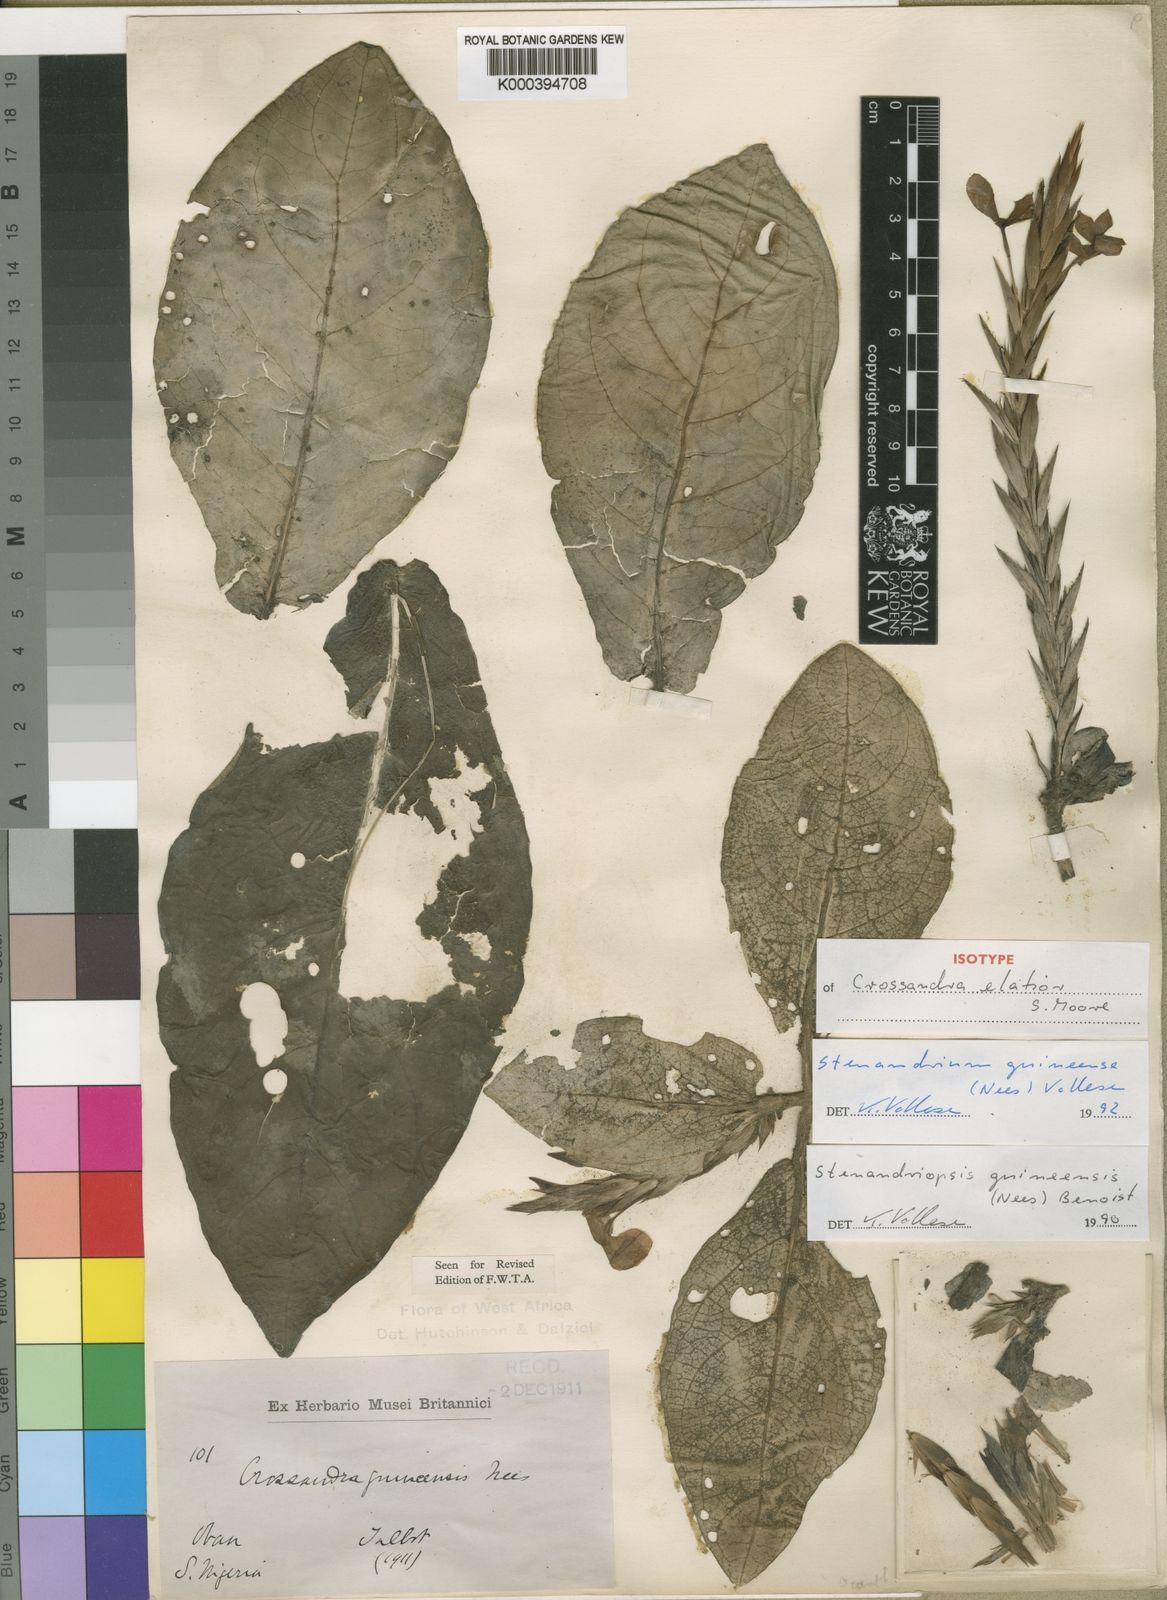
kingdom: Plantae
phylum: Tracheophyta
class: Magnoliopsida
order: Lamiales
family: Acanthaceae
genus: Stenandriopsis
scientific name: Stenandriopsis guineensis
